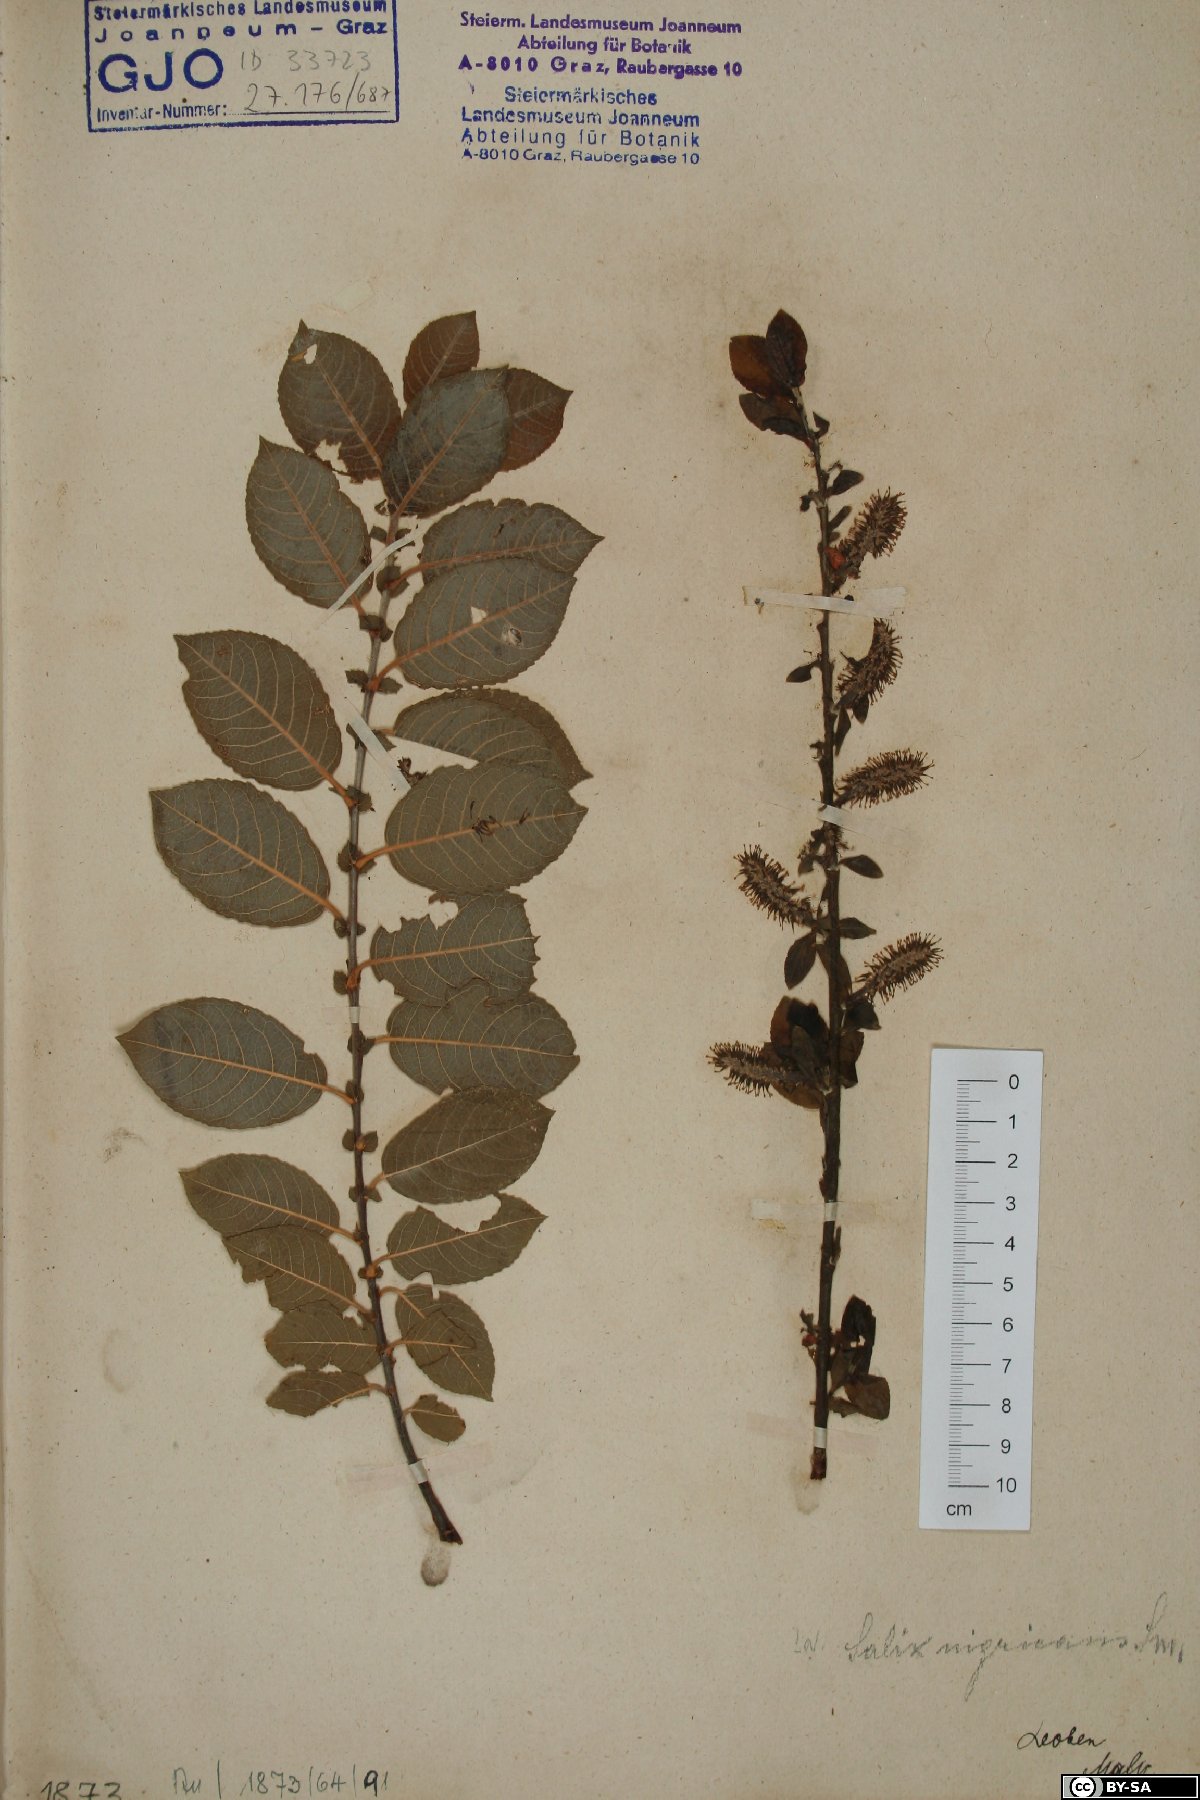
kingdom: Plantae
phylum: Tracheophyta
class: Magnoliopsida
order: Malpighiales
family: Salicaceae
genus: Salix
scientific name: Salix myrsinifolia
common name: Dark-leaved willow
